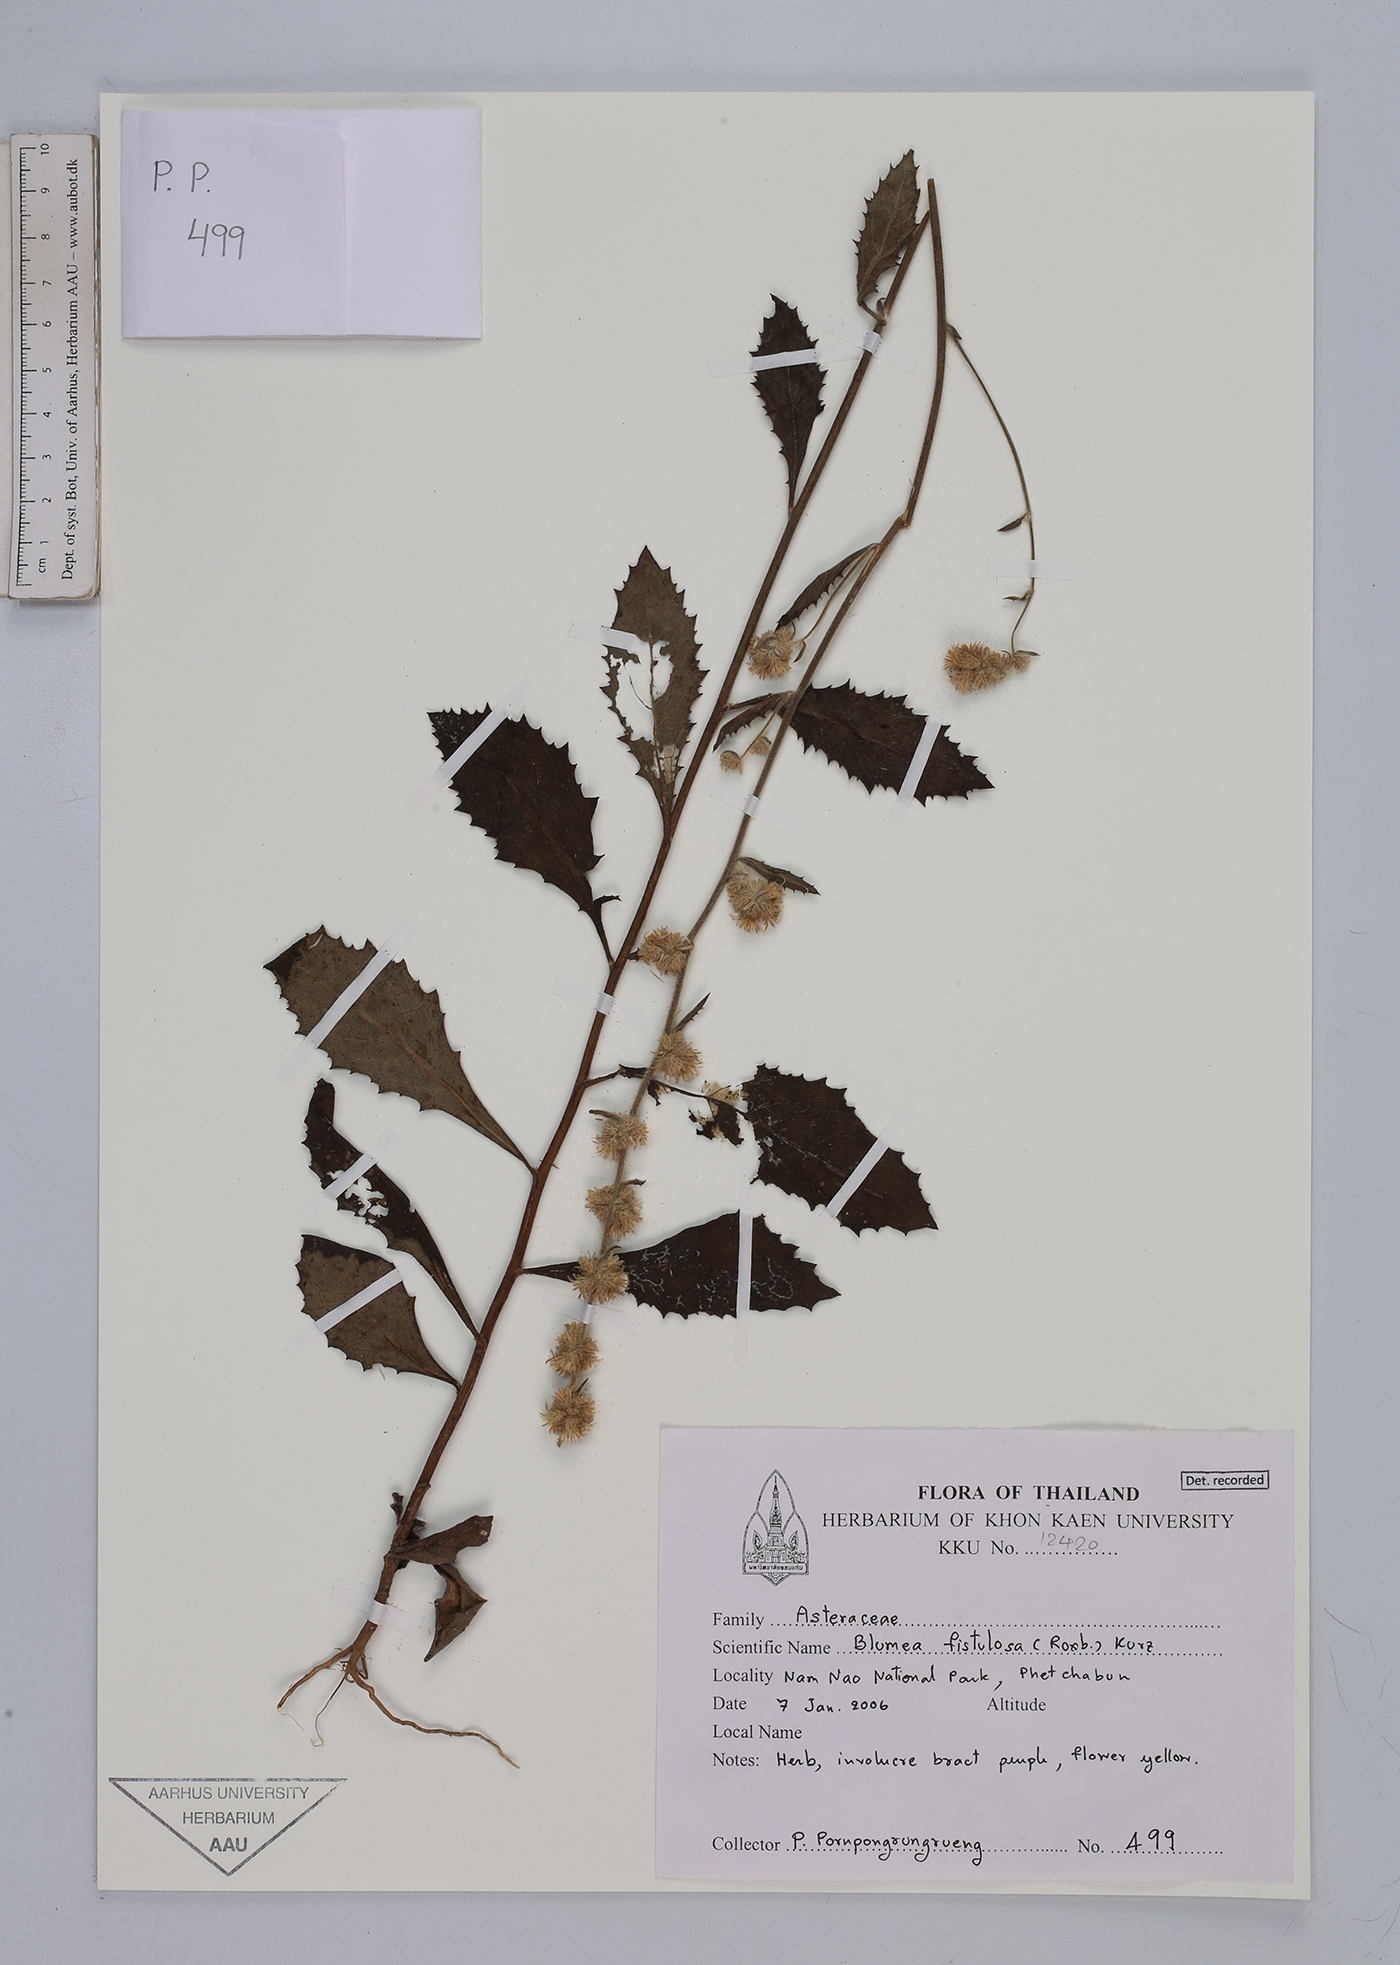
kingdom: Plantae
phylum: Tracheophyta
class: Magnoliopsida
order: Asterales
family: Asteraceae
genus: Blumea
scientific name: Blumea fistulosa
